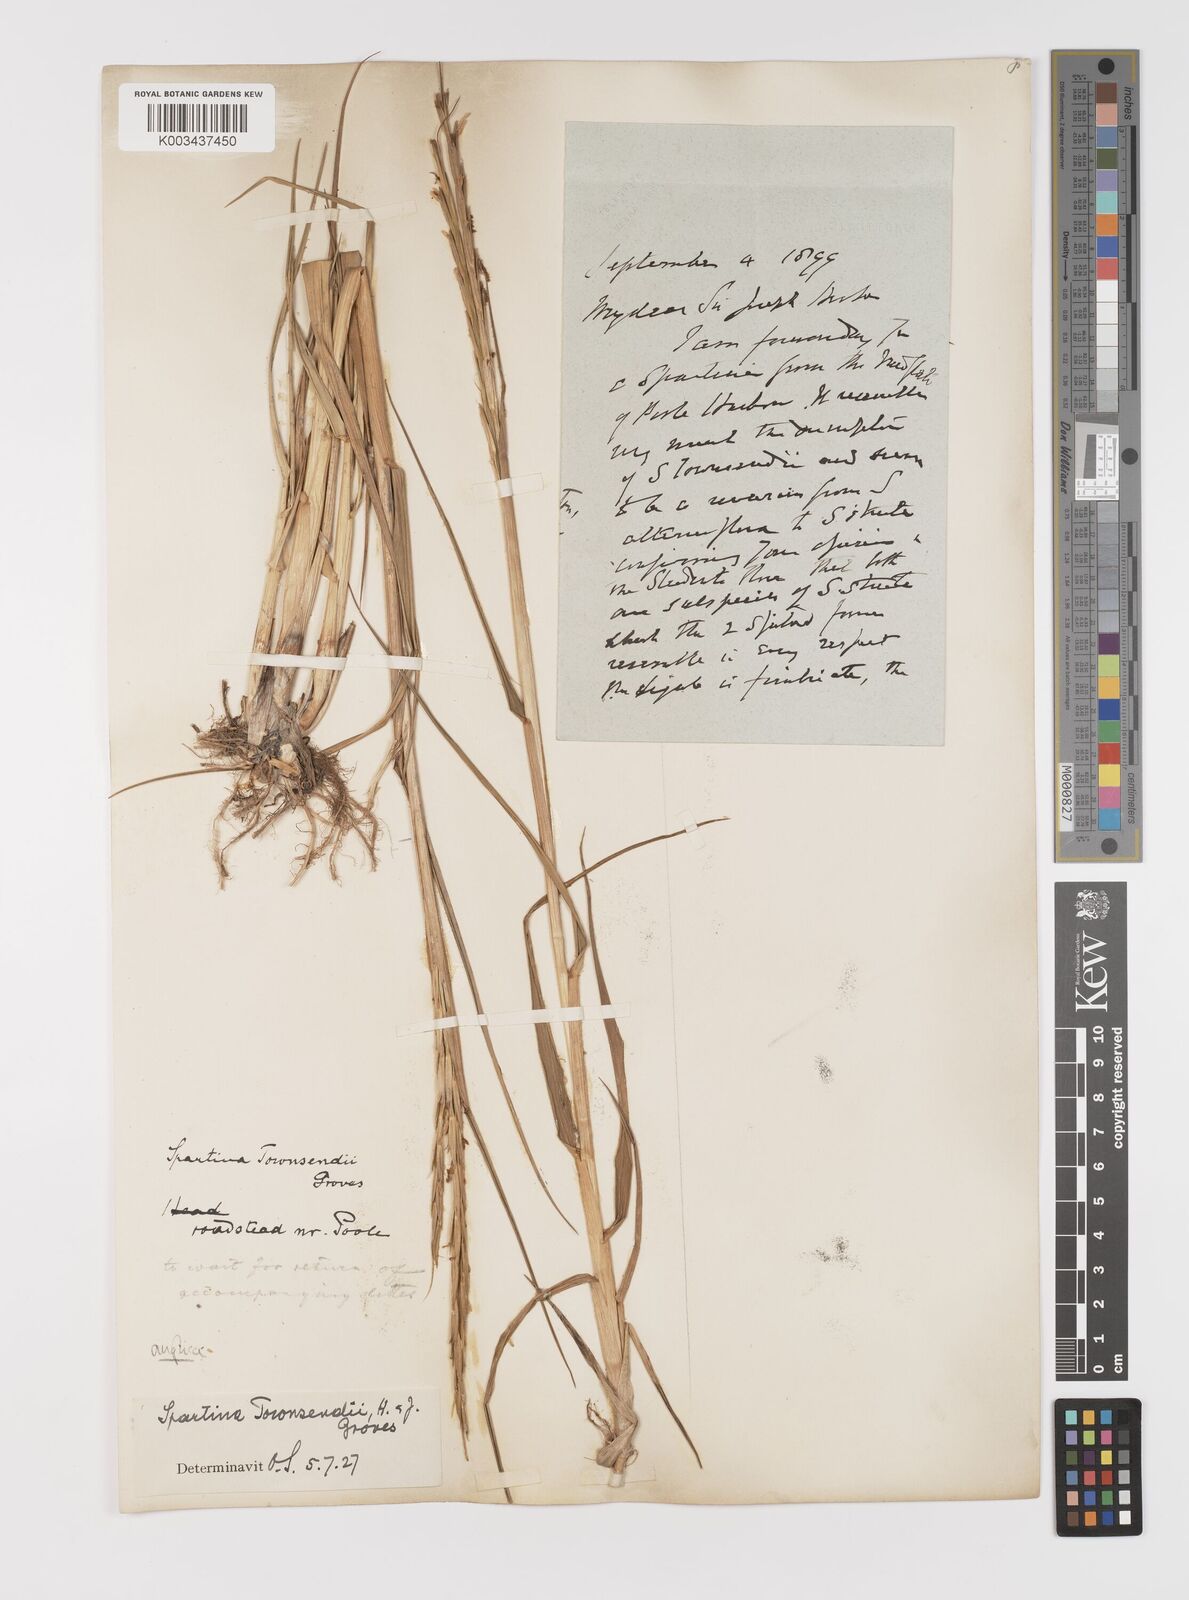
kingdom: Plantae
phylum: Tracheophyta
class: Liliopsida
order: Poales
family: Poaceae
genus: Sporobolus
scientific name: Sporobolus anglicus
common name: English cordgrass
